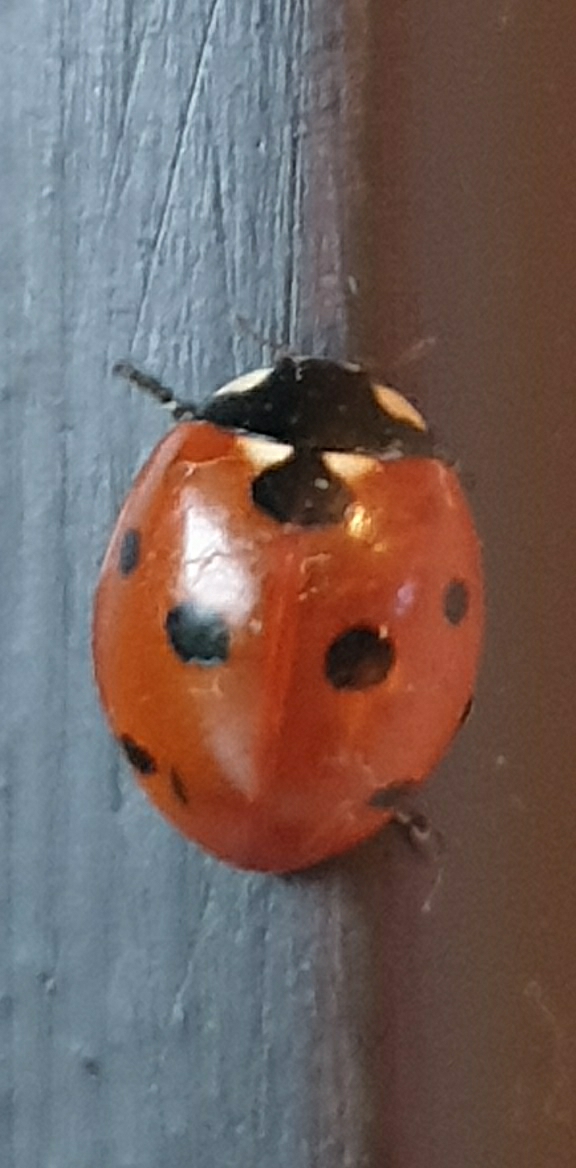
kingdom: Animalia
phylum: Arthropoda
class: Insecta
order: Coleoptera
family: Coccinellidae
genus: Coccinella
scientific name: Coccinella septempunctata
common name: Syvplettet mariehøne
